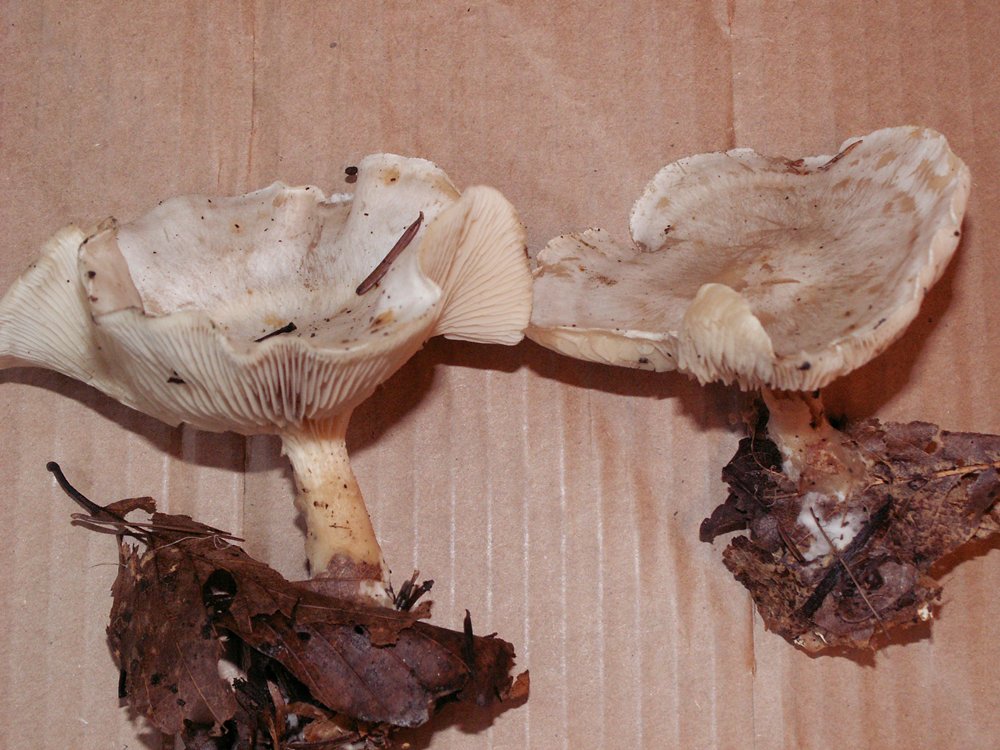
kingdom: Fungi
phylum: Basidiomycota
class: Agaricomycetes
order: Agaricales
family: Tricholomataceae
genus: Clitocybe
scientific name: Clitocybe phyllophila
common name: løv-tragthat
